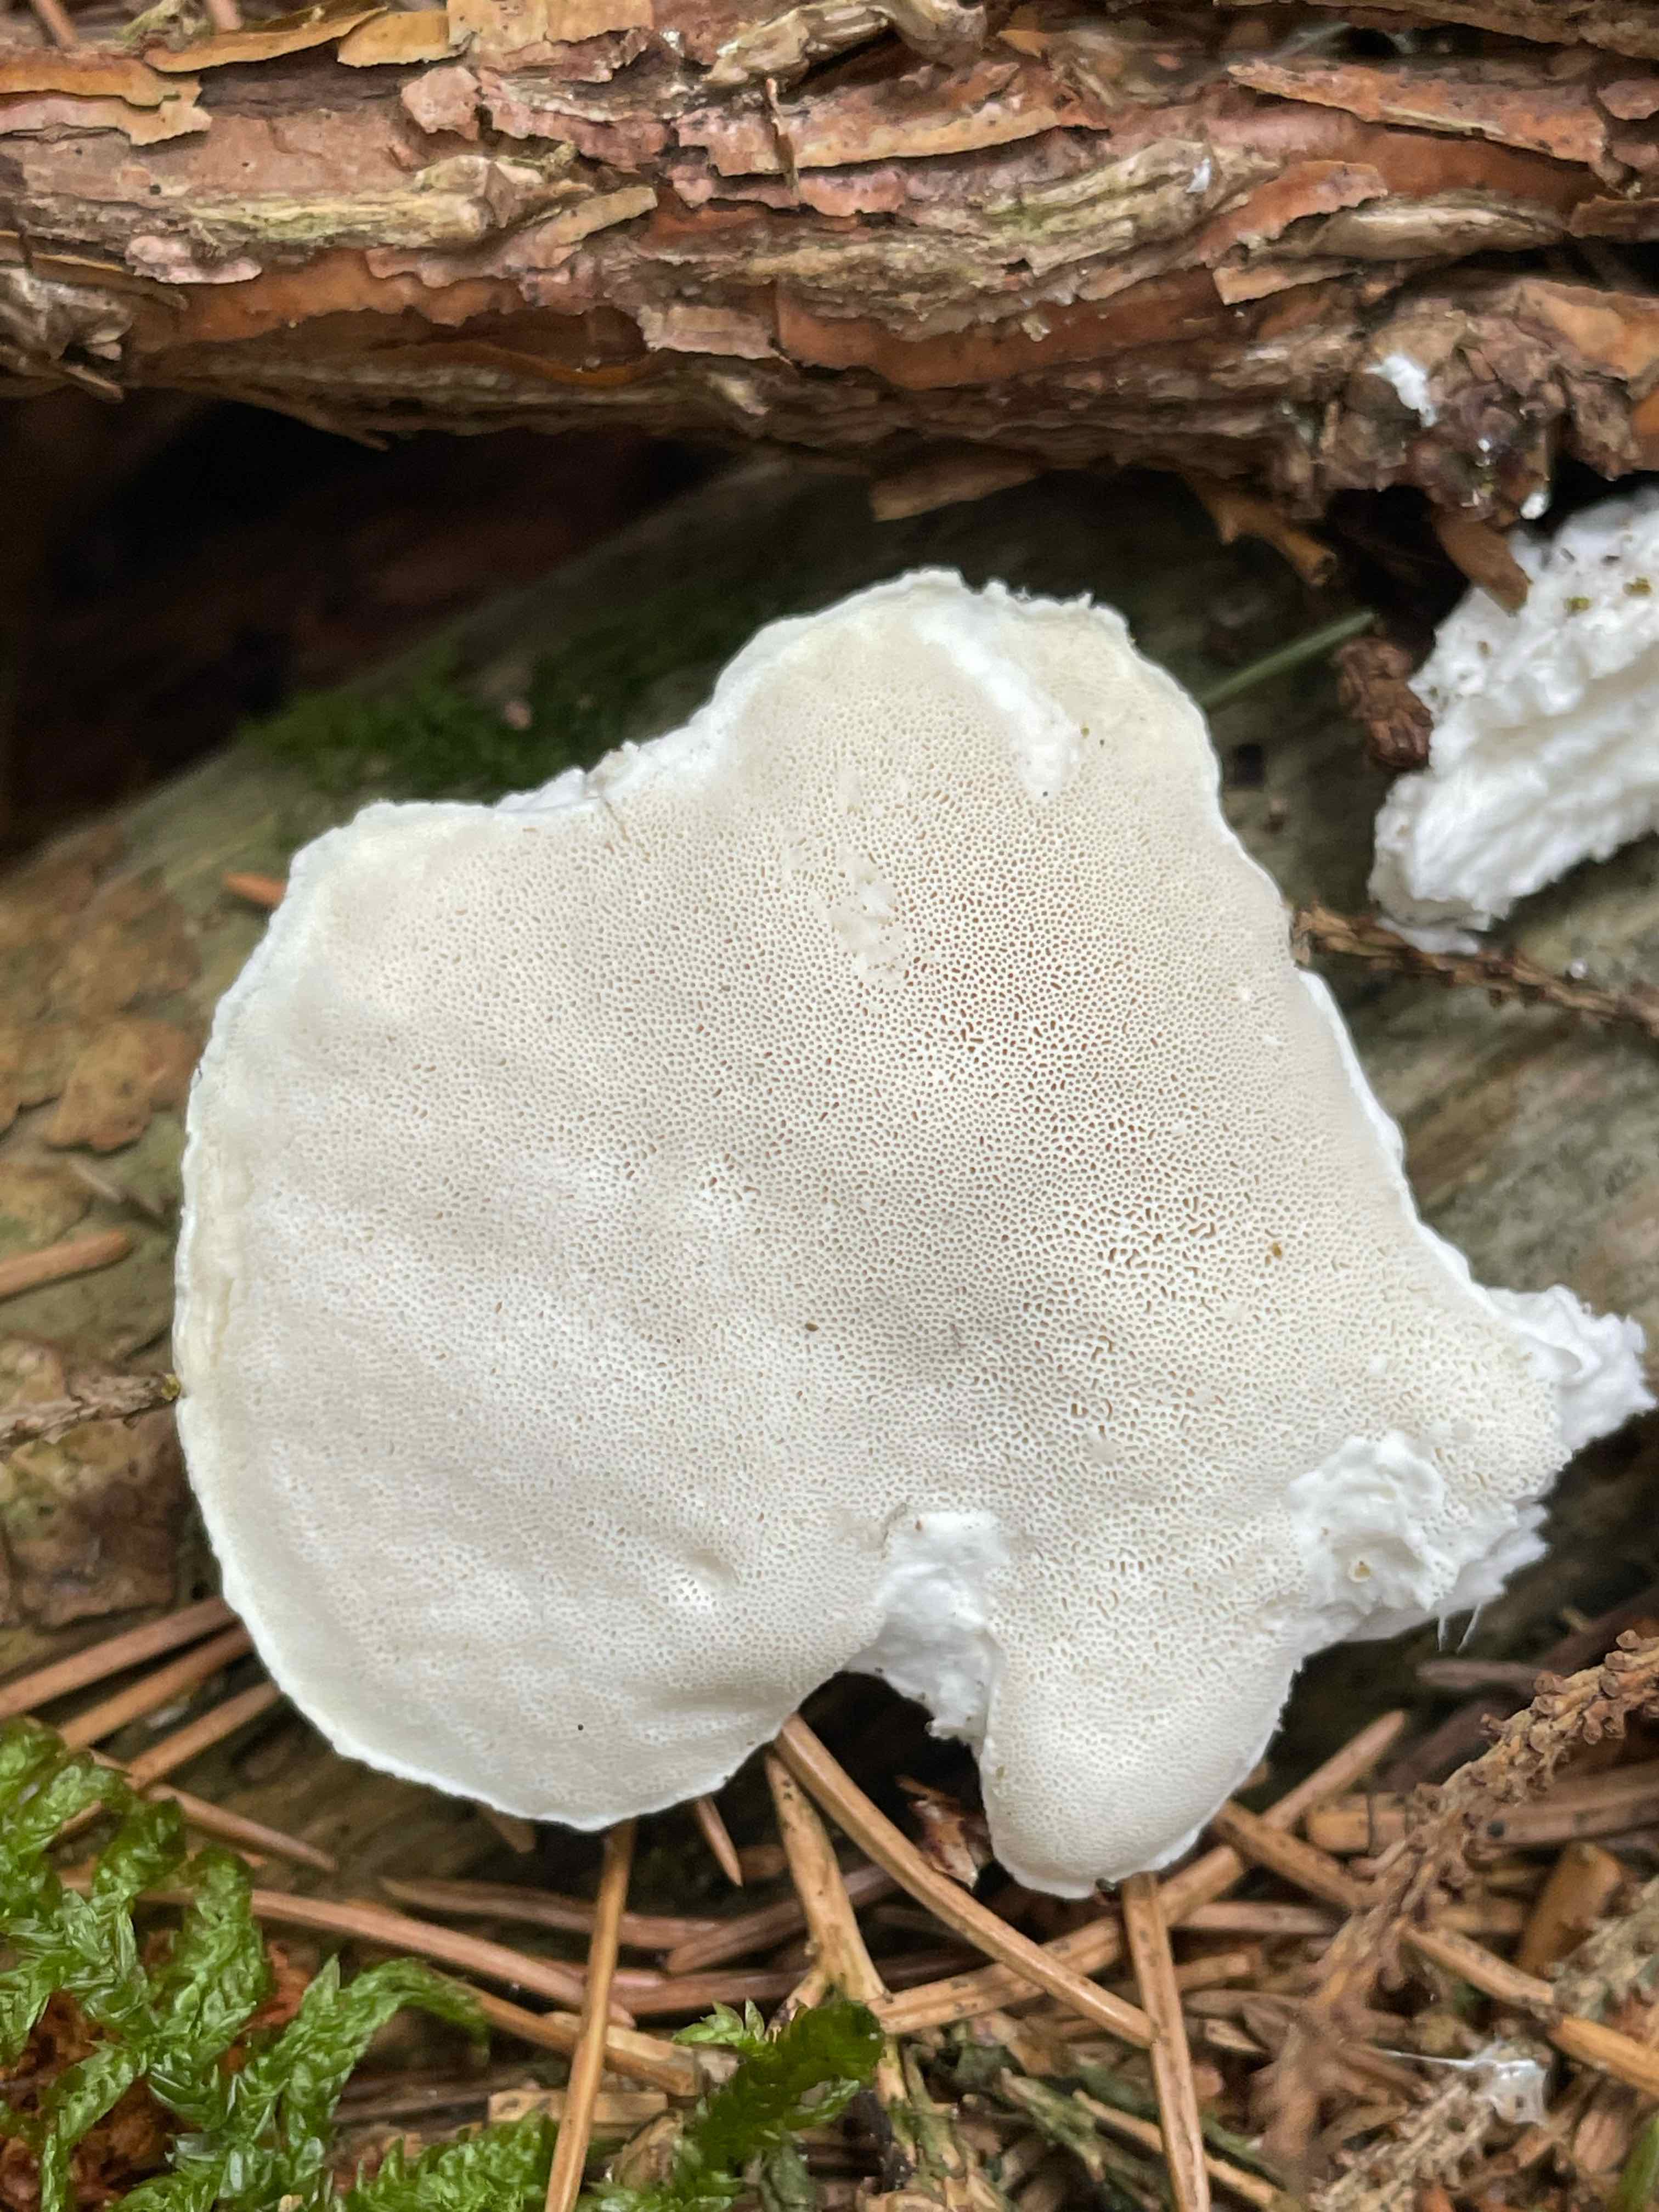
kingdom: Fungi
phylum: Basidiomycota
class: Agaricomycetes
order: Polyporales
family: Incrustoporiaceae
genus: Tyromyces
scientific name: Tyromyces lacteus
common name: mælkehvid kødporesvamp
